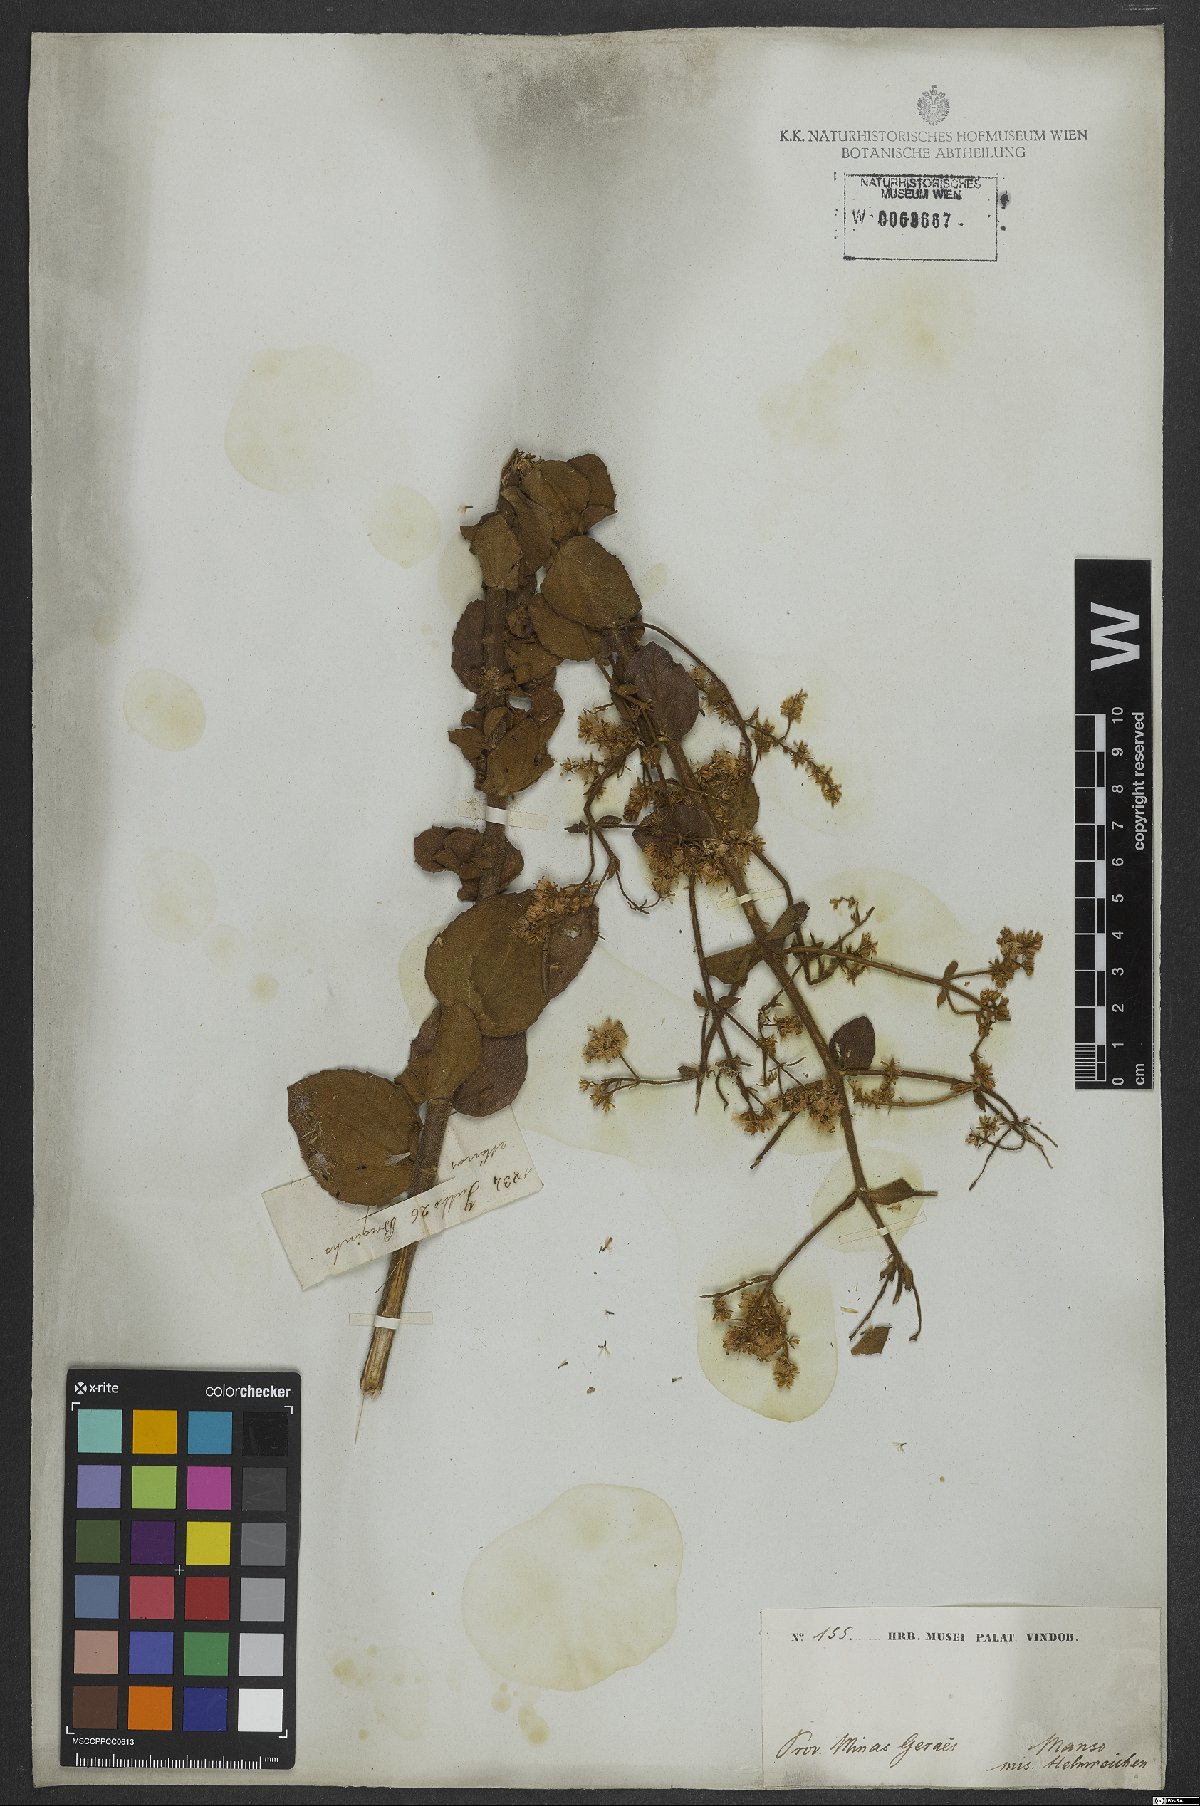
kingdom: Plantae
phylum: Tracheophyta
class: Magnoliopsida
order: Asterales
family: Asteraceae
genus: Mikania
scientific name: Mikania sessilifolia
